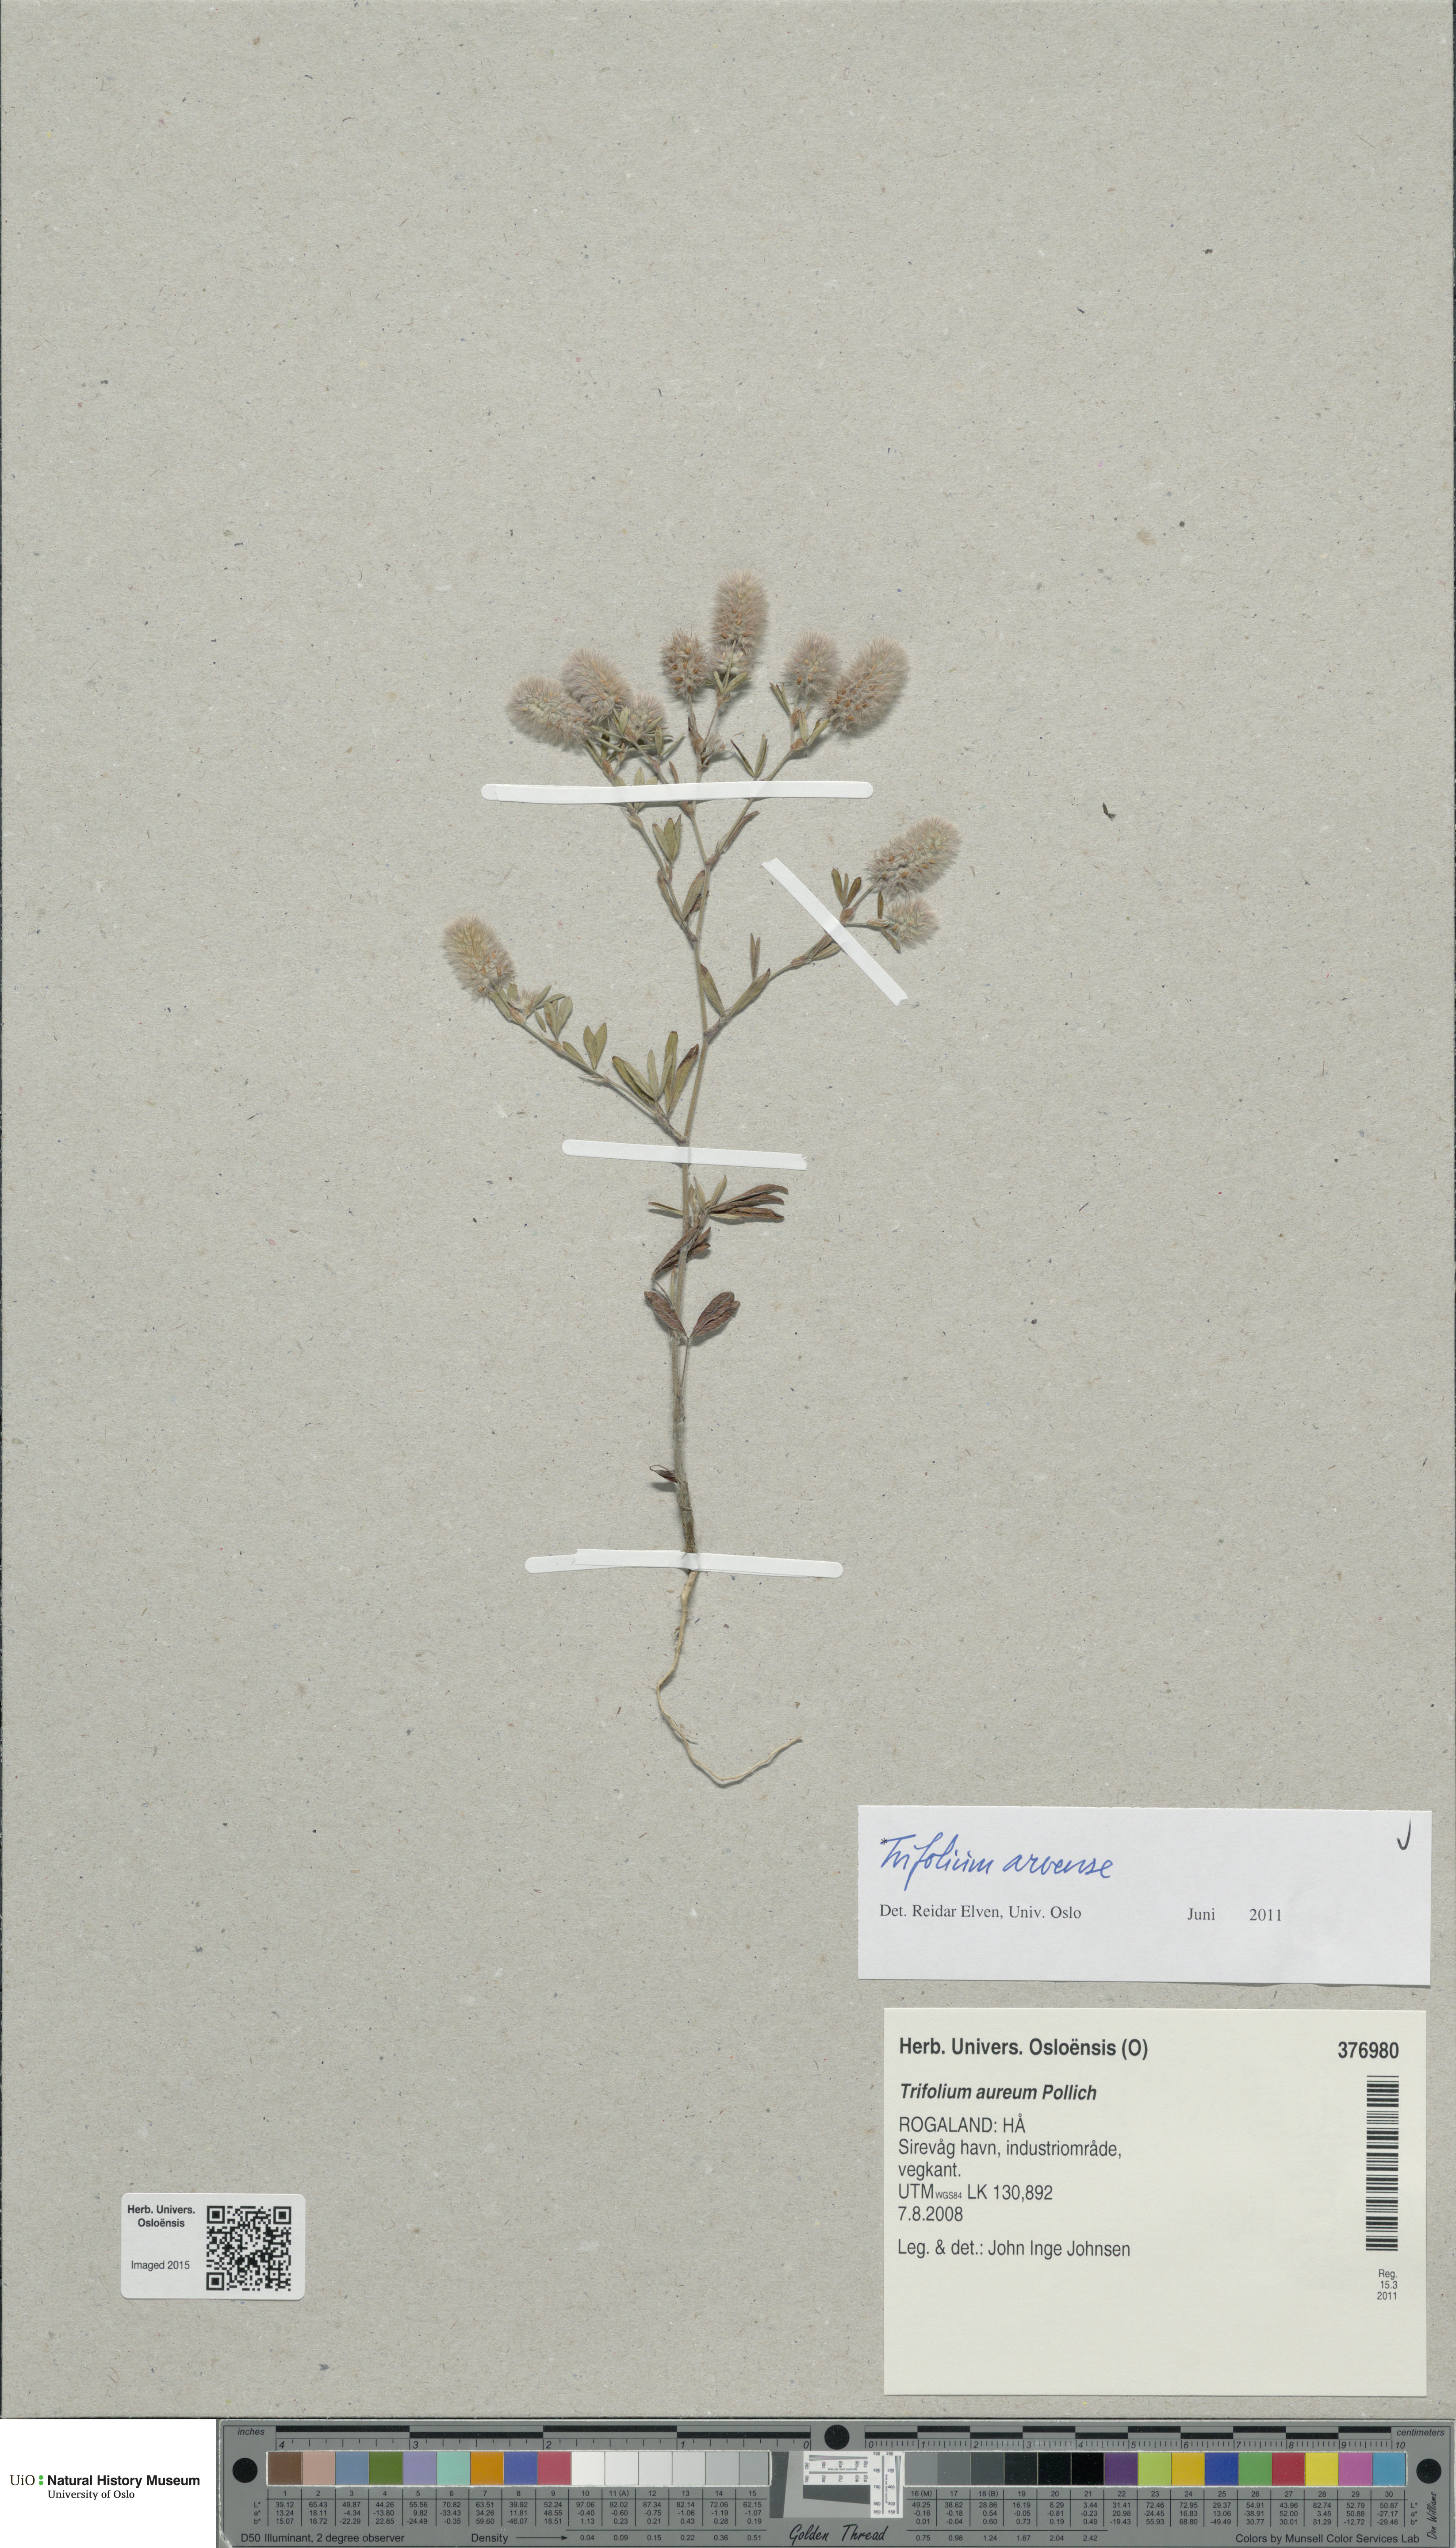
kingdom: Plantae
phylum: Tracheophyta
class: Magnoliopsida
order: Fabales
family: Fabaceae
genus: Trifolium
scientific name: Trifolium arvense
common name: Hare's-foot clover
